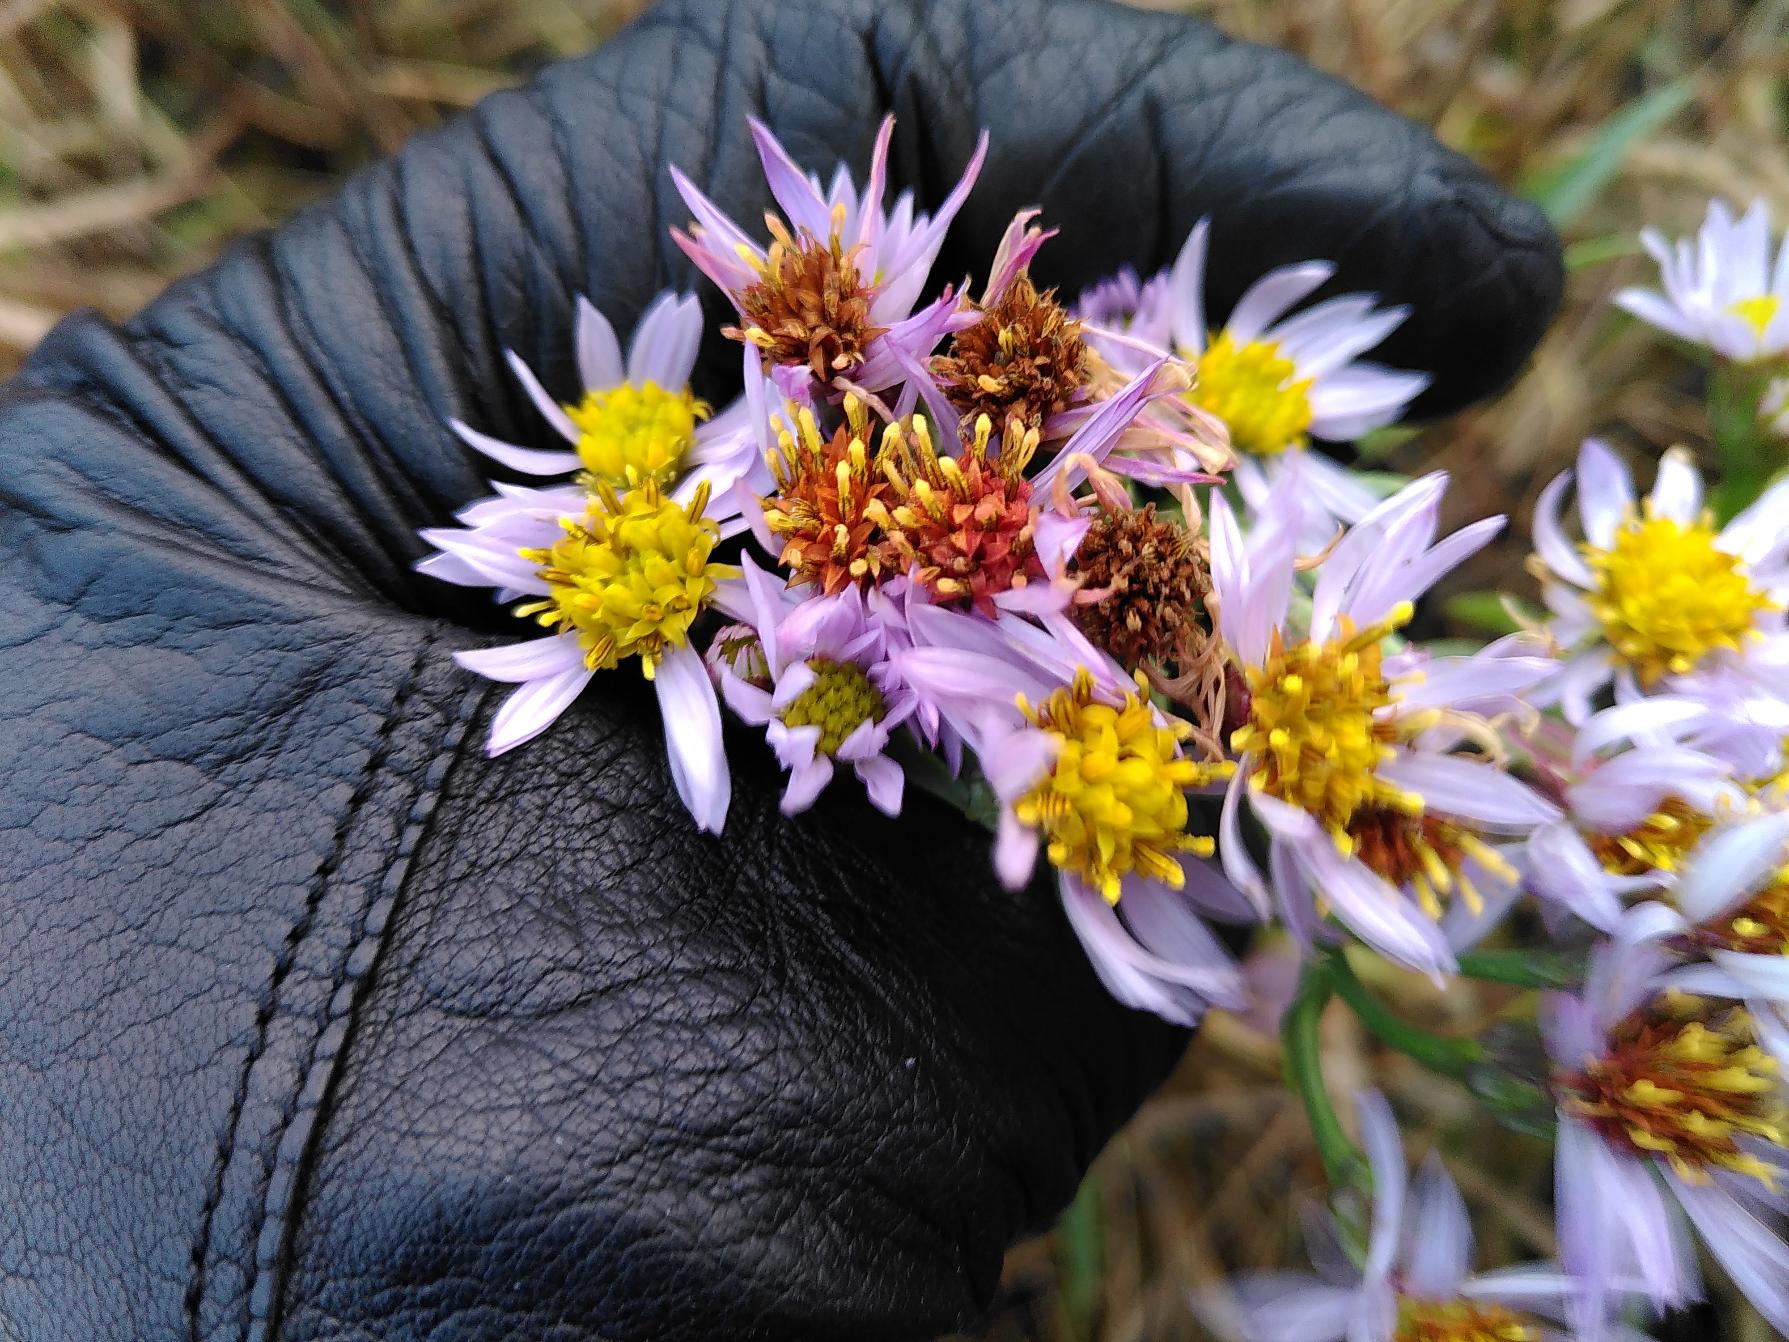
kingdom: Plantae
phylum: Tracheophyta
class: Magnoliopsida
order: Asterales
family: Asteraceae
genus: Tripolium
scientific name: Tripolium pannonicum
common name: Strandasters
